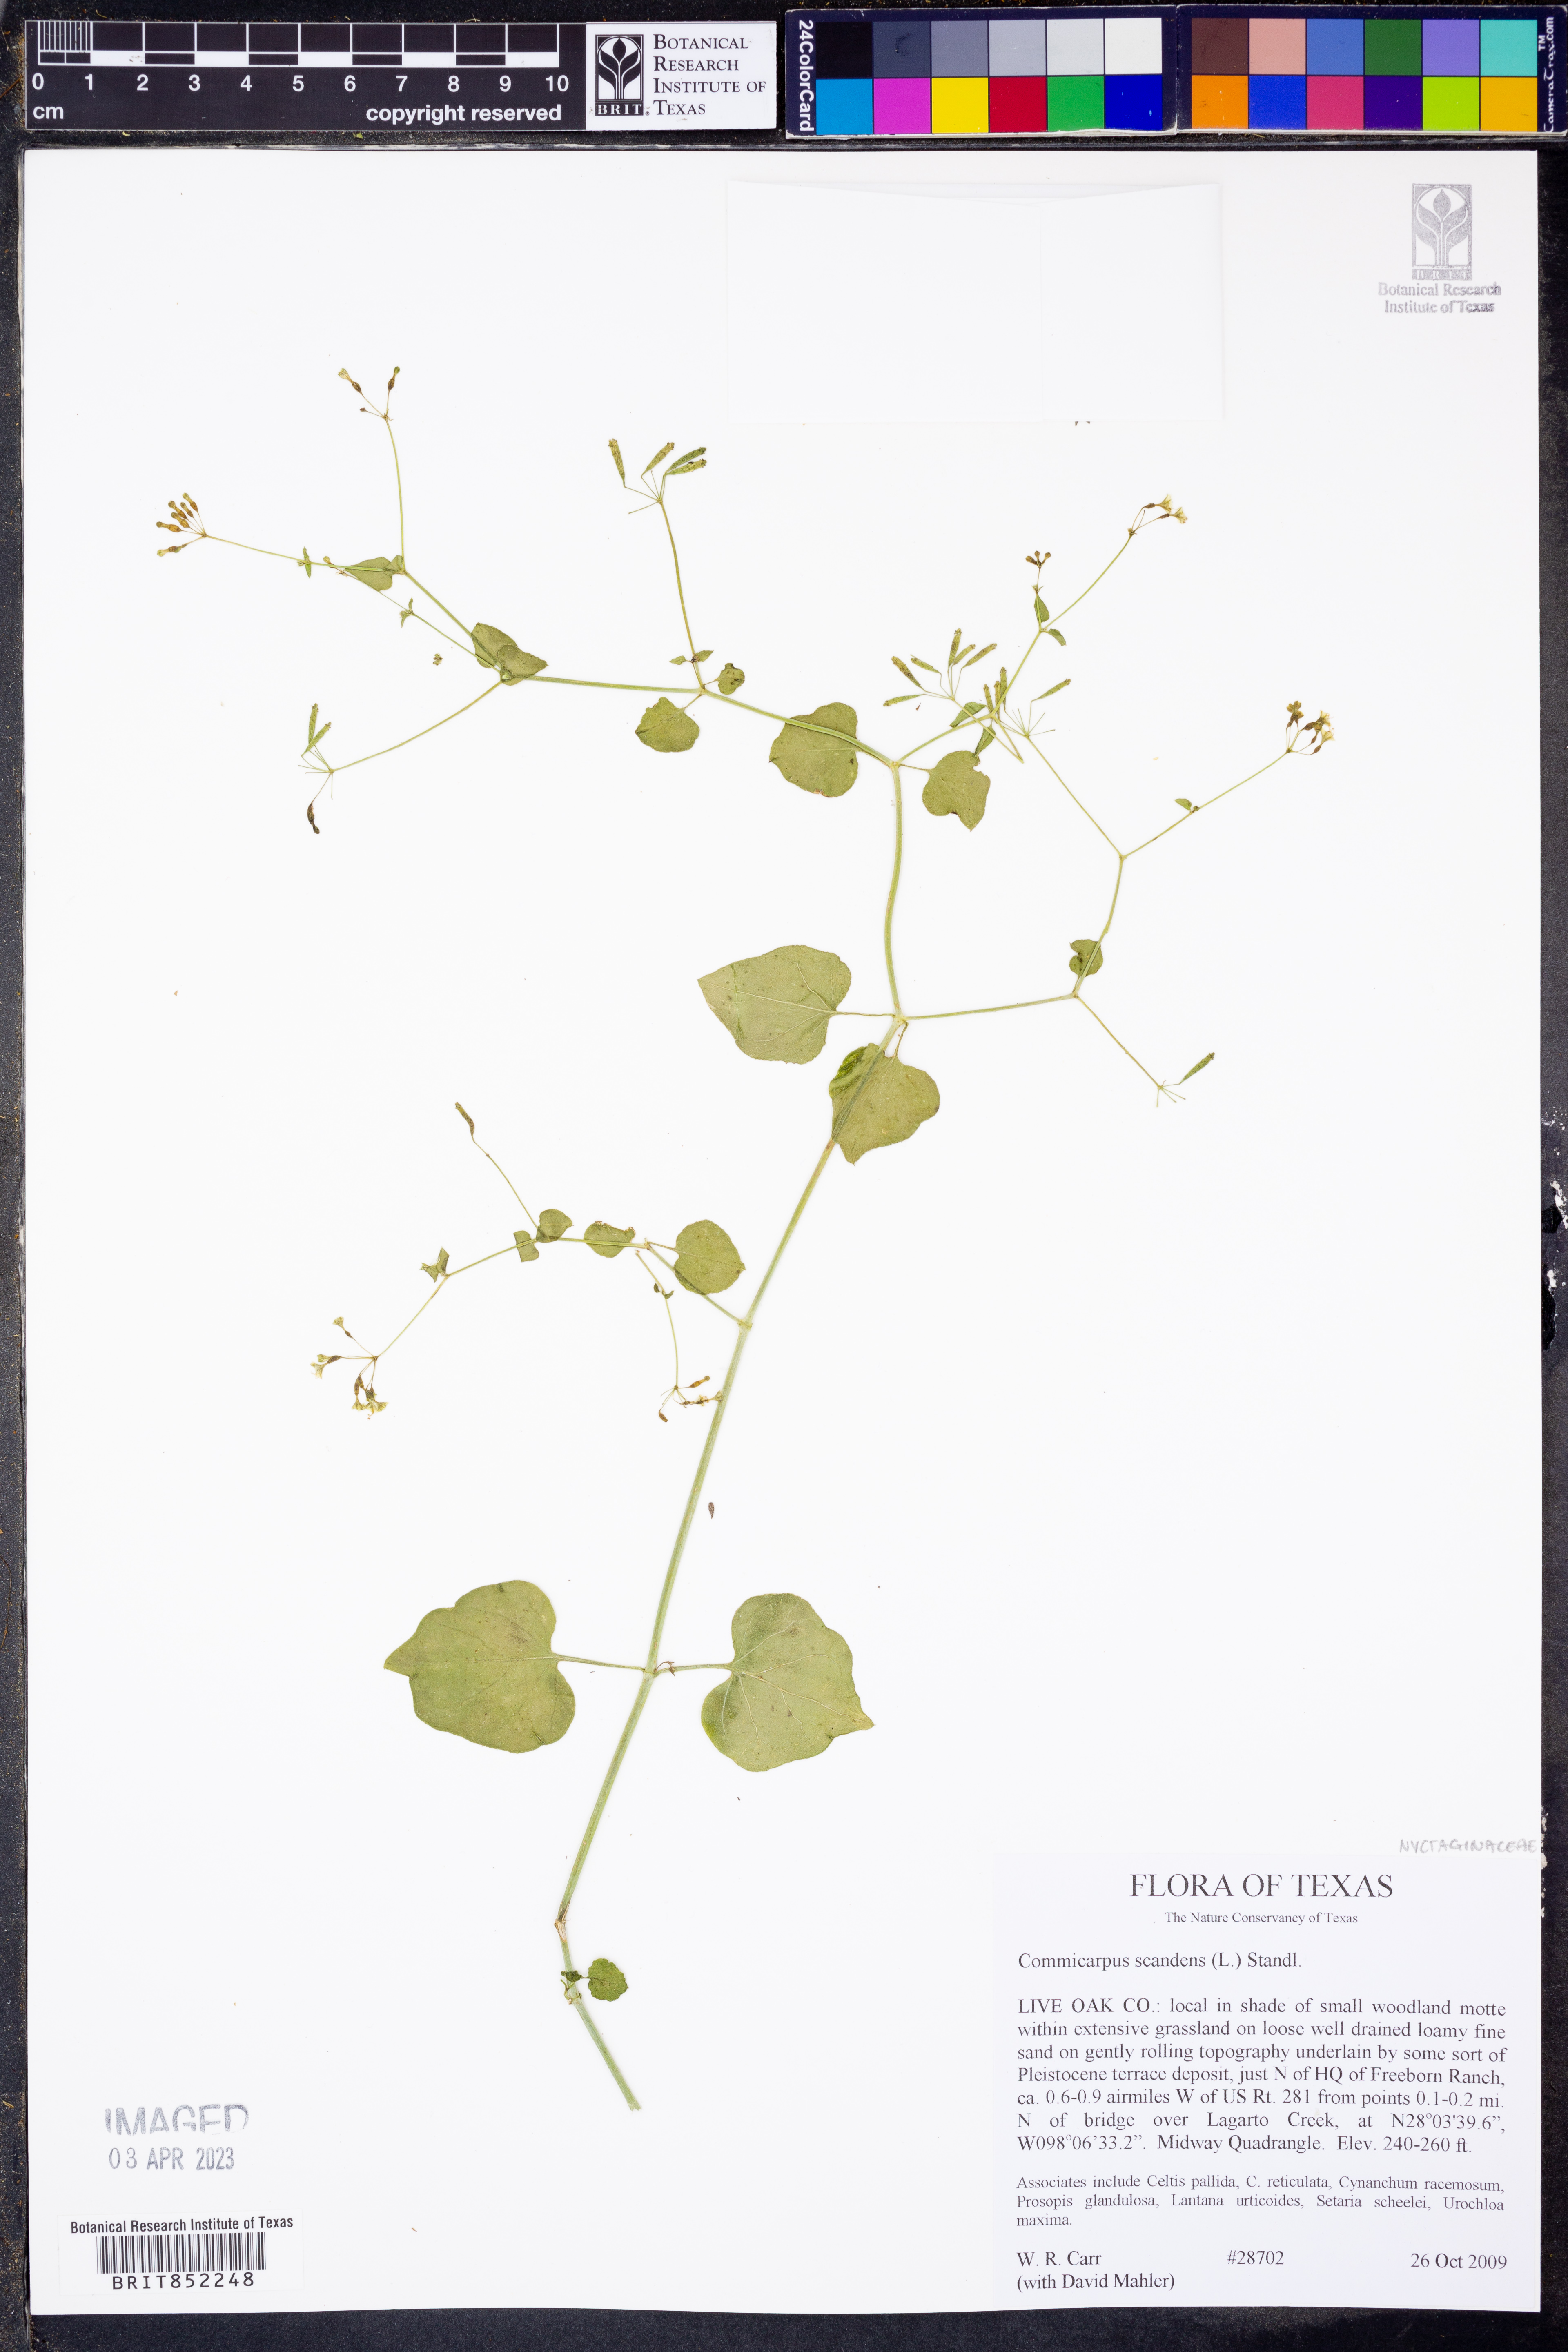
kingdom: Plantae
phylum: Tracheophyta
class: Magnoliopsida
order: Caryophyllales
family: Nyctaginaceae
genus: Commicarpus
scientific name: Commicarpus scandens
